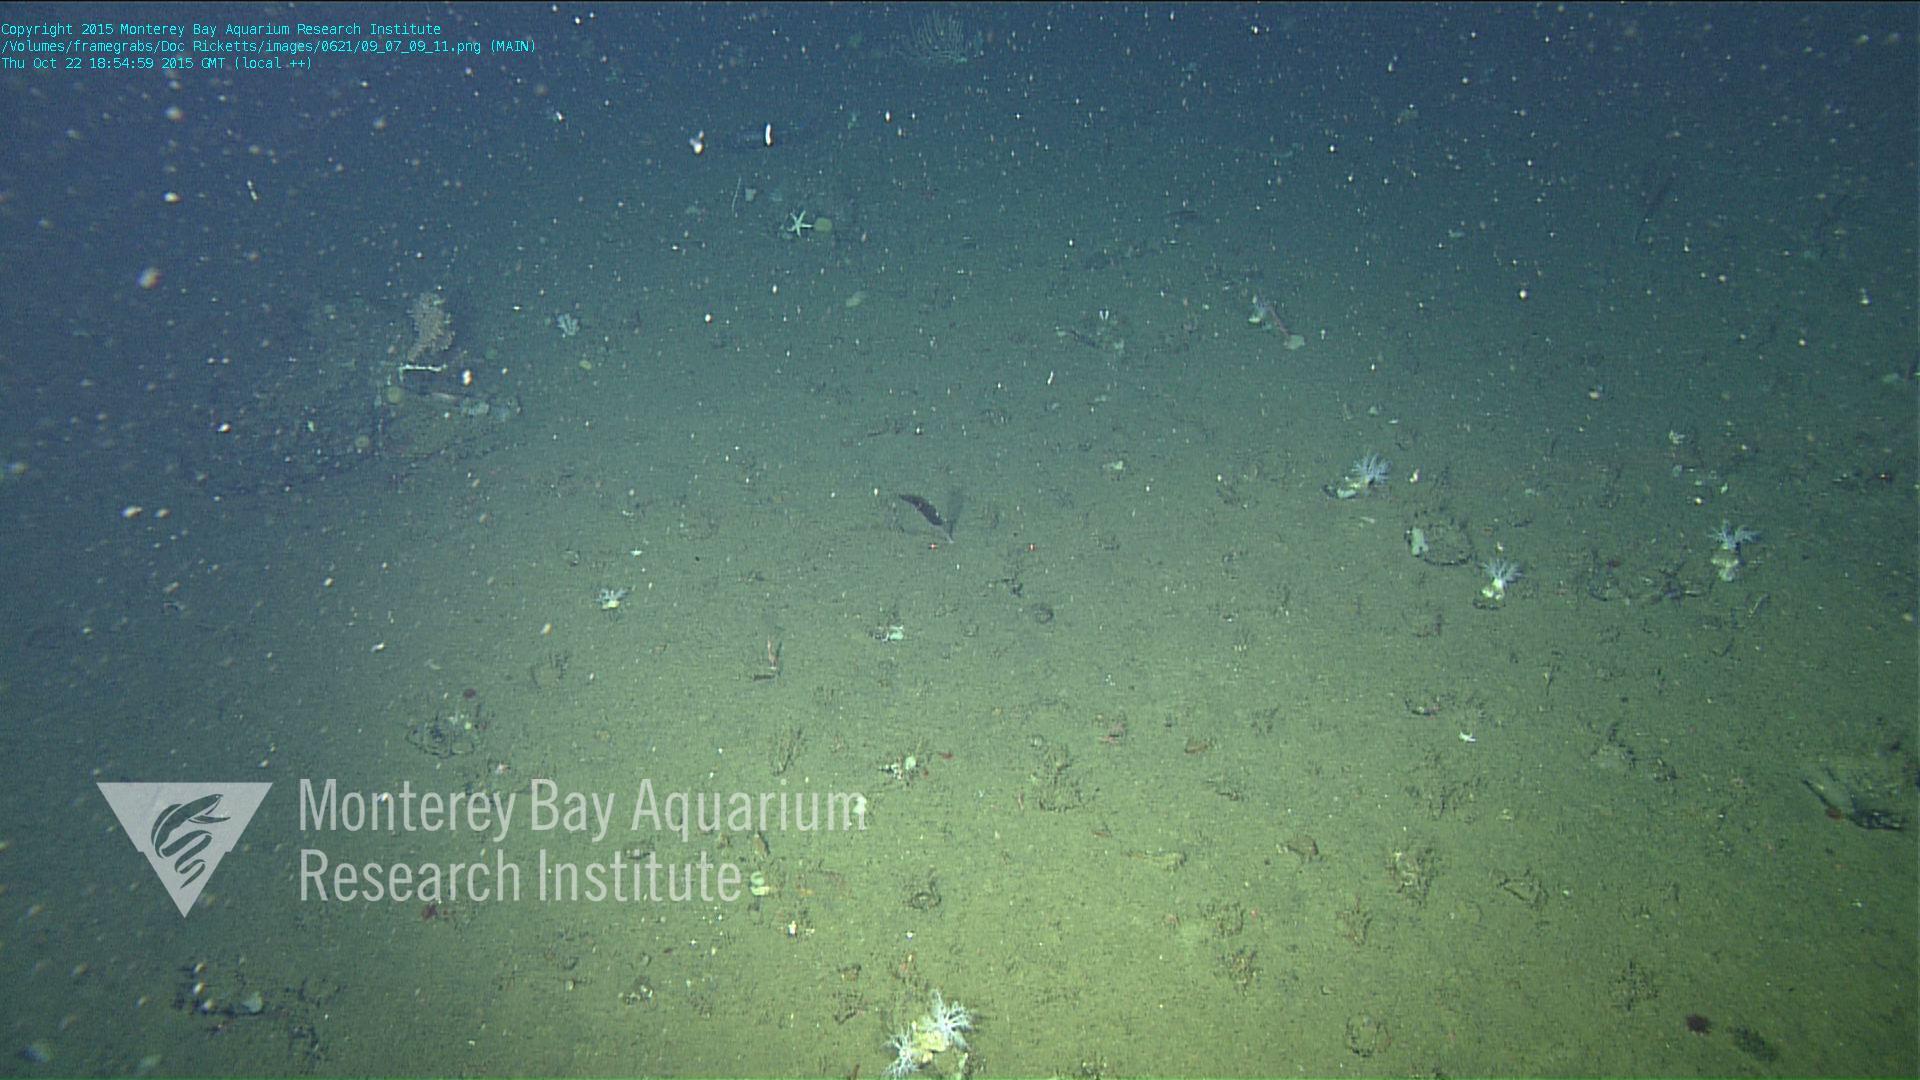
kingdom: Animalia
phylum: Cnidaria
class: Anthozoa
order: Scleralcyonacea
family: Funiculinidae
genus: Funiculina
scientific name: Funiculina
